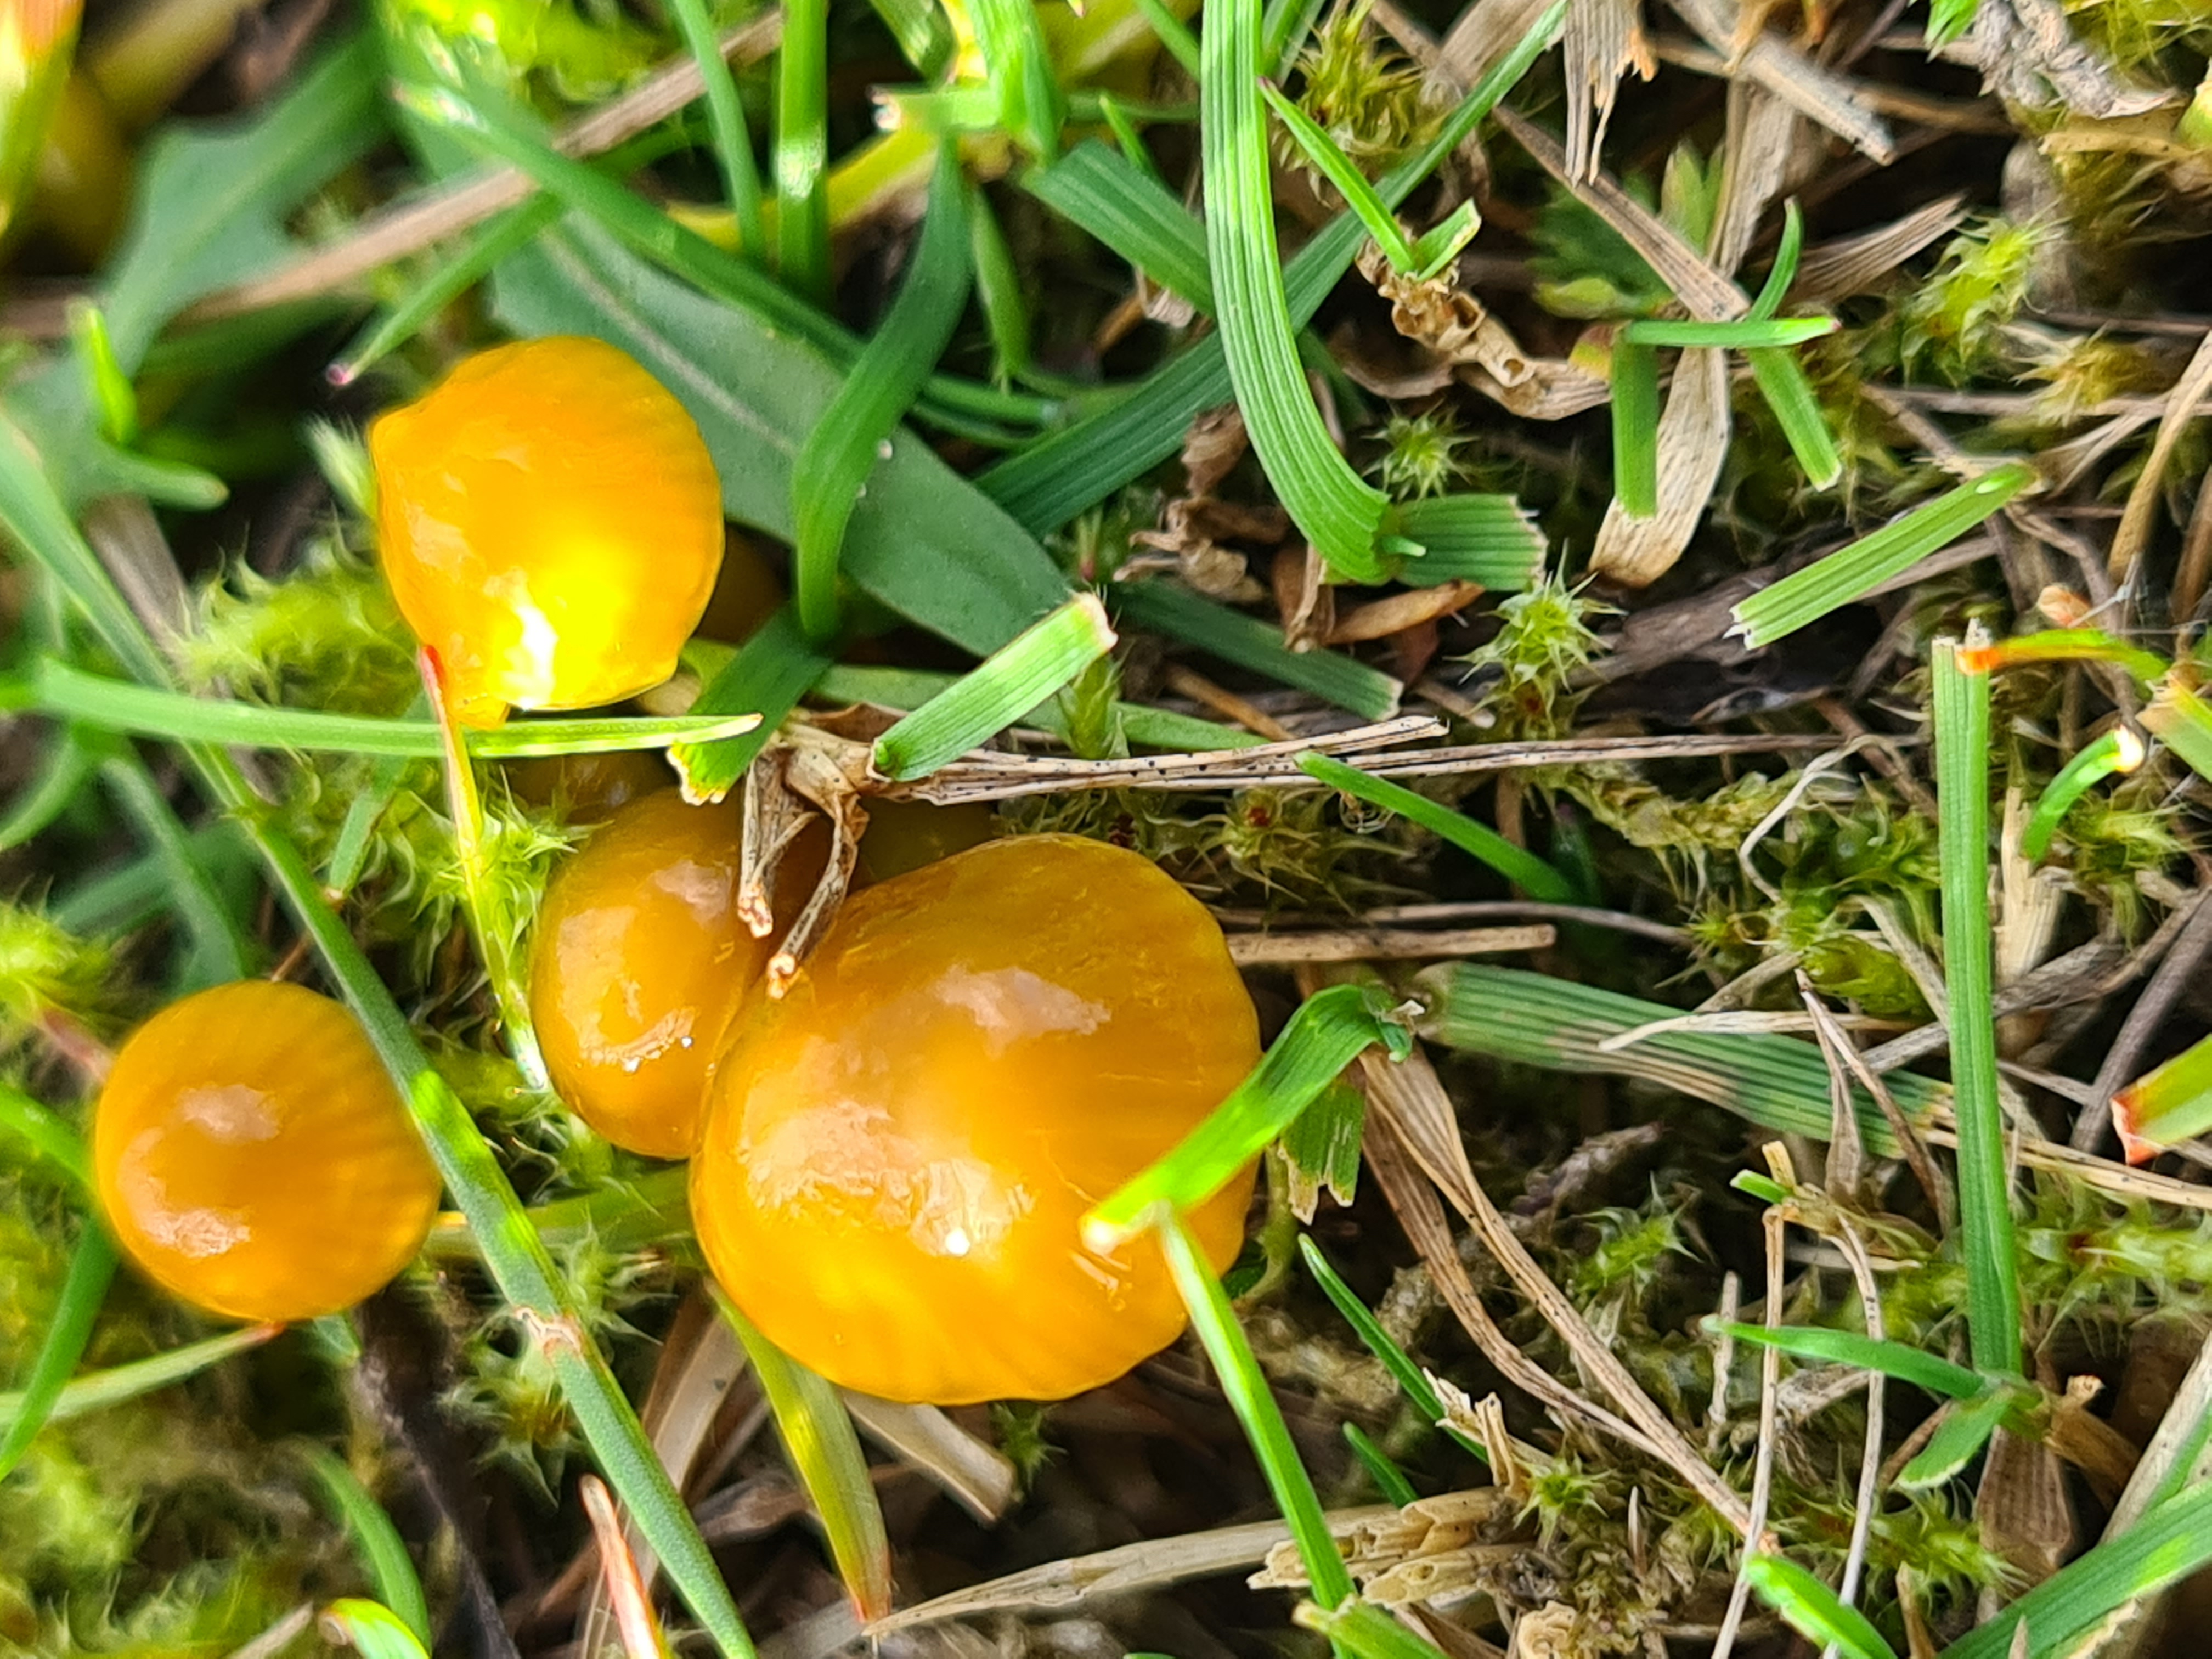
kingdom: Fungi
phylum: Basidiomycota
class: Agaricomycetes
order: Agaricales
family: Hygrophoraceae
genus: Gliophorus
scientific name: Gliophorus psittacinus
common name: Papegøje-vokshat
